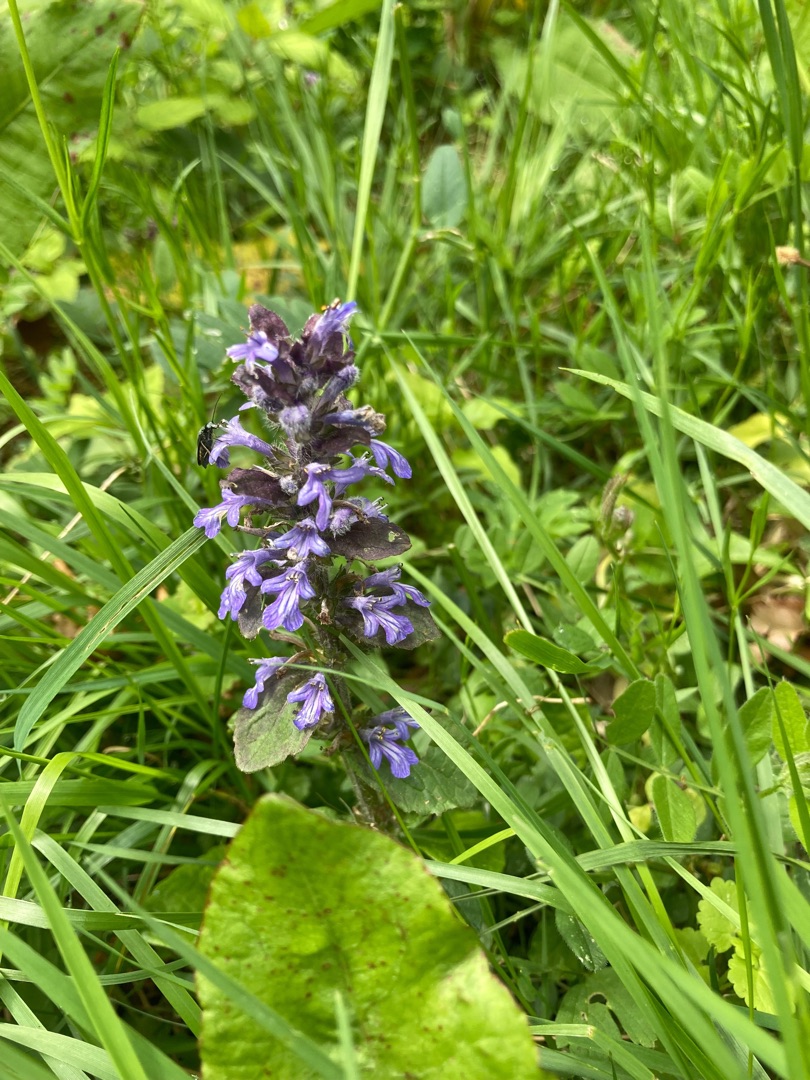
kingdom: Plantae
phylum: Tracheophyta
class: Magnoliopsida
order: Lamiales
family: Lamiaceae
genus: Ajuga
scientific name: Ajuga reptans
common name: Krybende læbeløs
